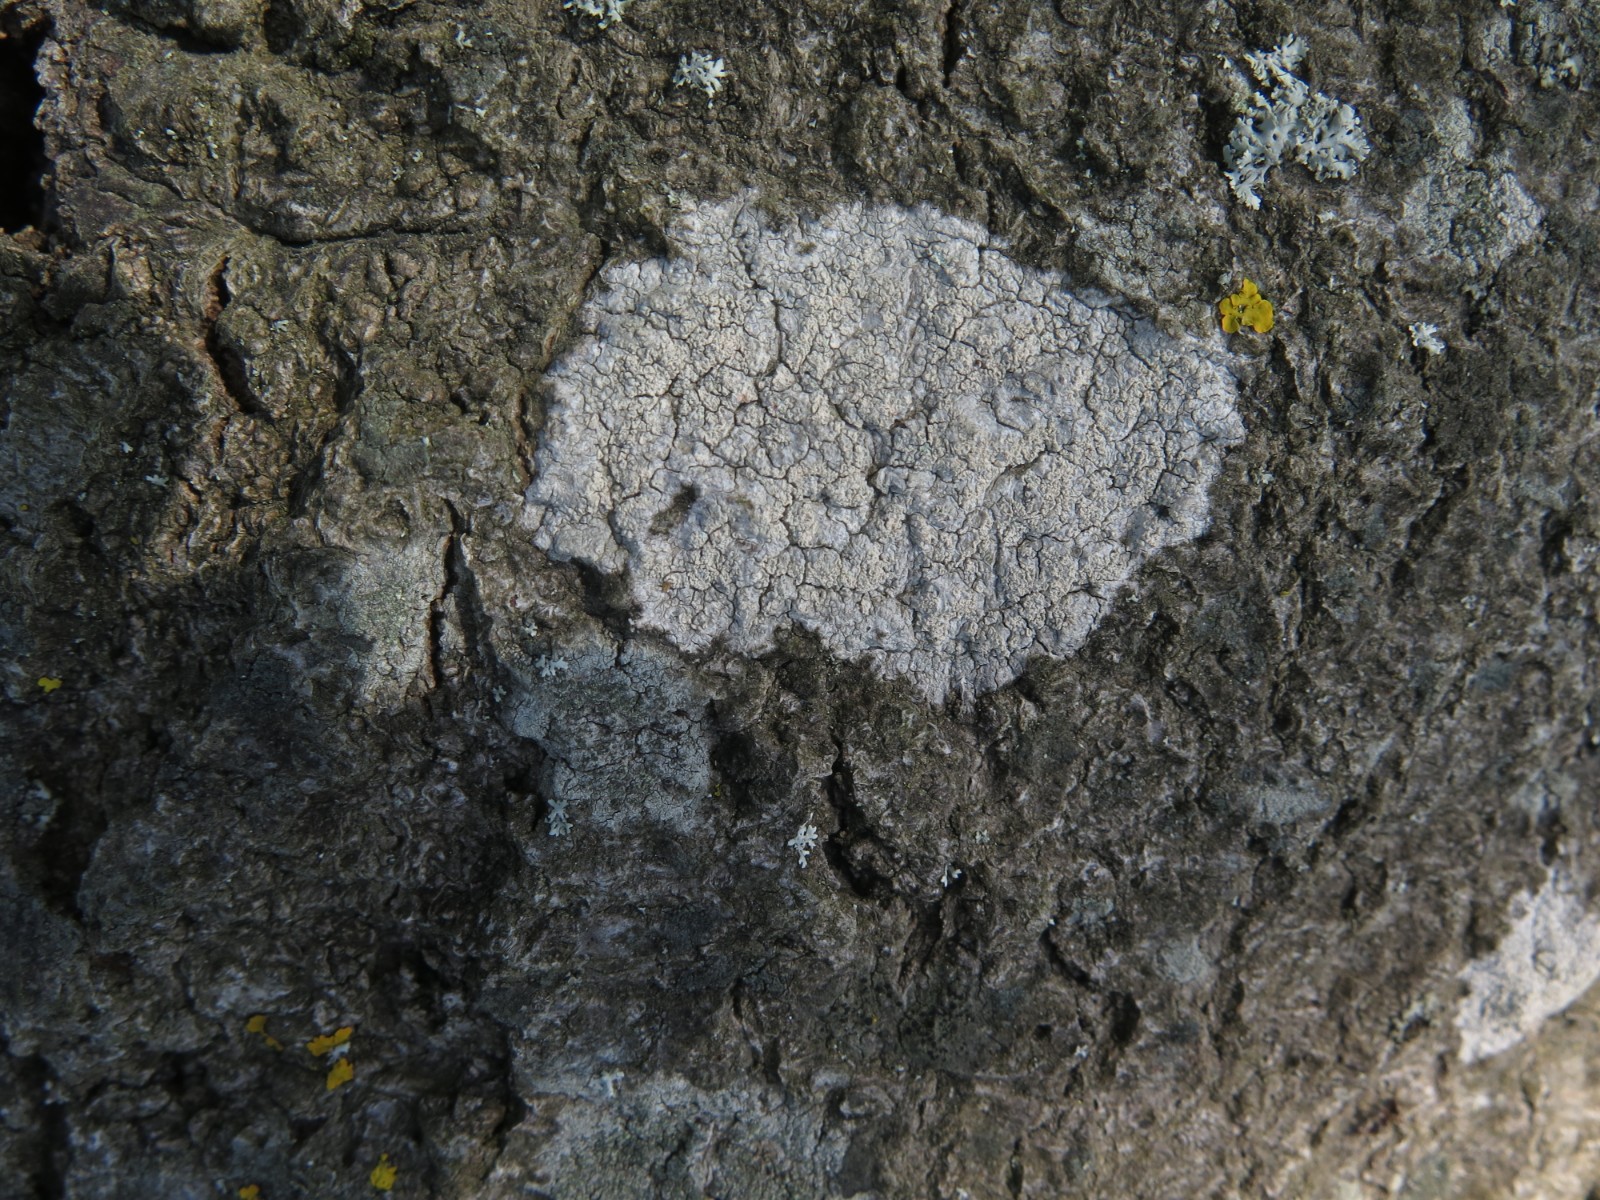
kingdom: Fungi
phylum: Ascomycota
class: Lecanoromycetes
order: Ostropales
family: Phlyctidaceae
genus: Phlyctis
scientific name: Phlyctis argena
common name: almindelig sølvlav
